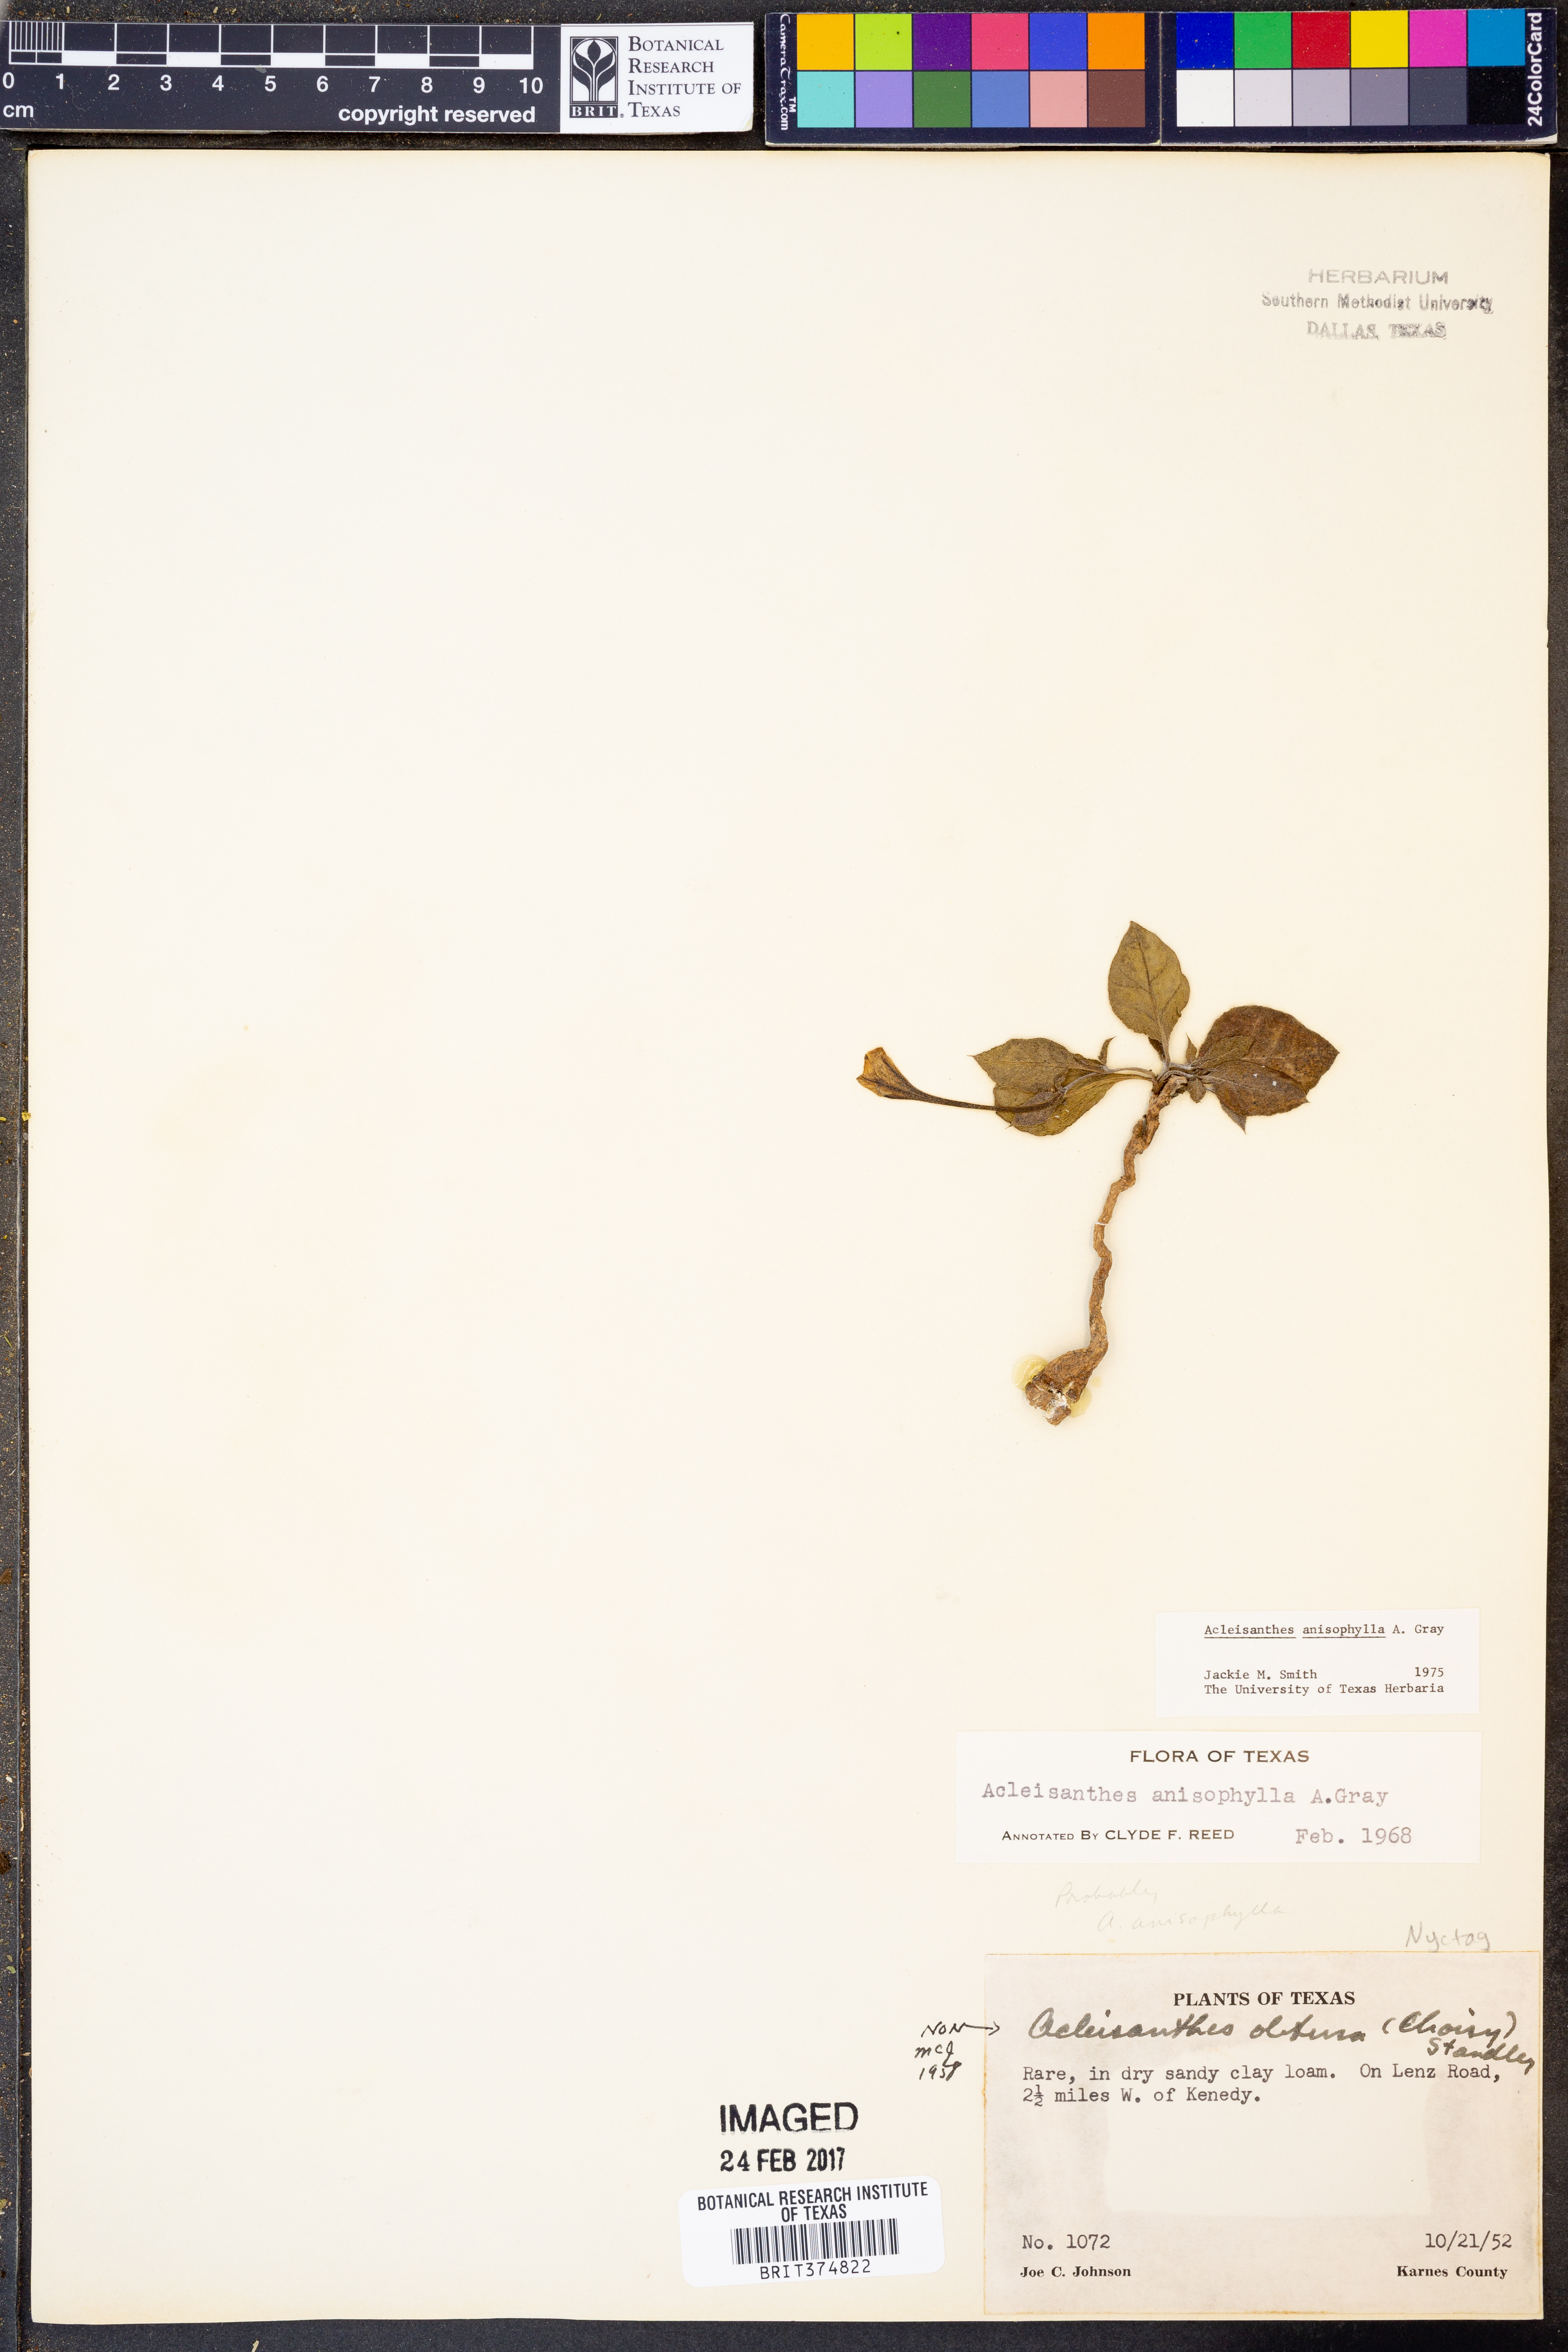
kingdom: Plantae
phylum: Tracheophyta
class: Magnoliopsida
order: Caryophyllales
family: Nyctaginaceae
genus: Acleisanthes
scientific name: Acleisanthes anisophylla
